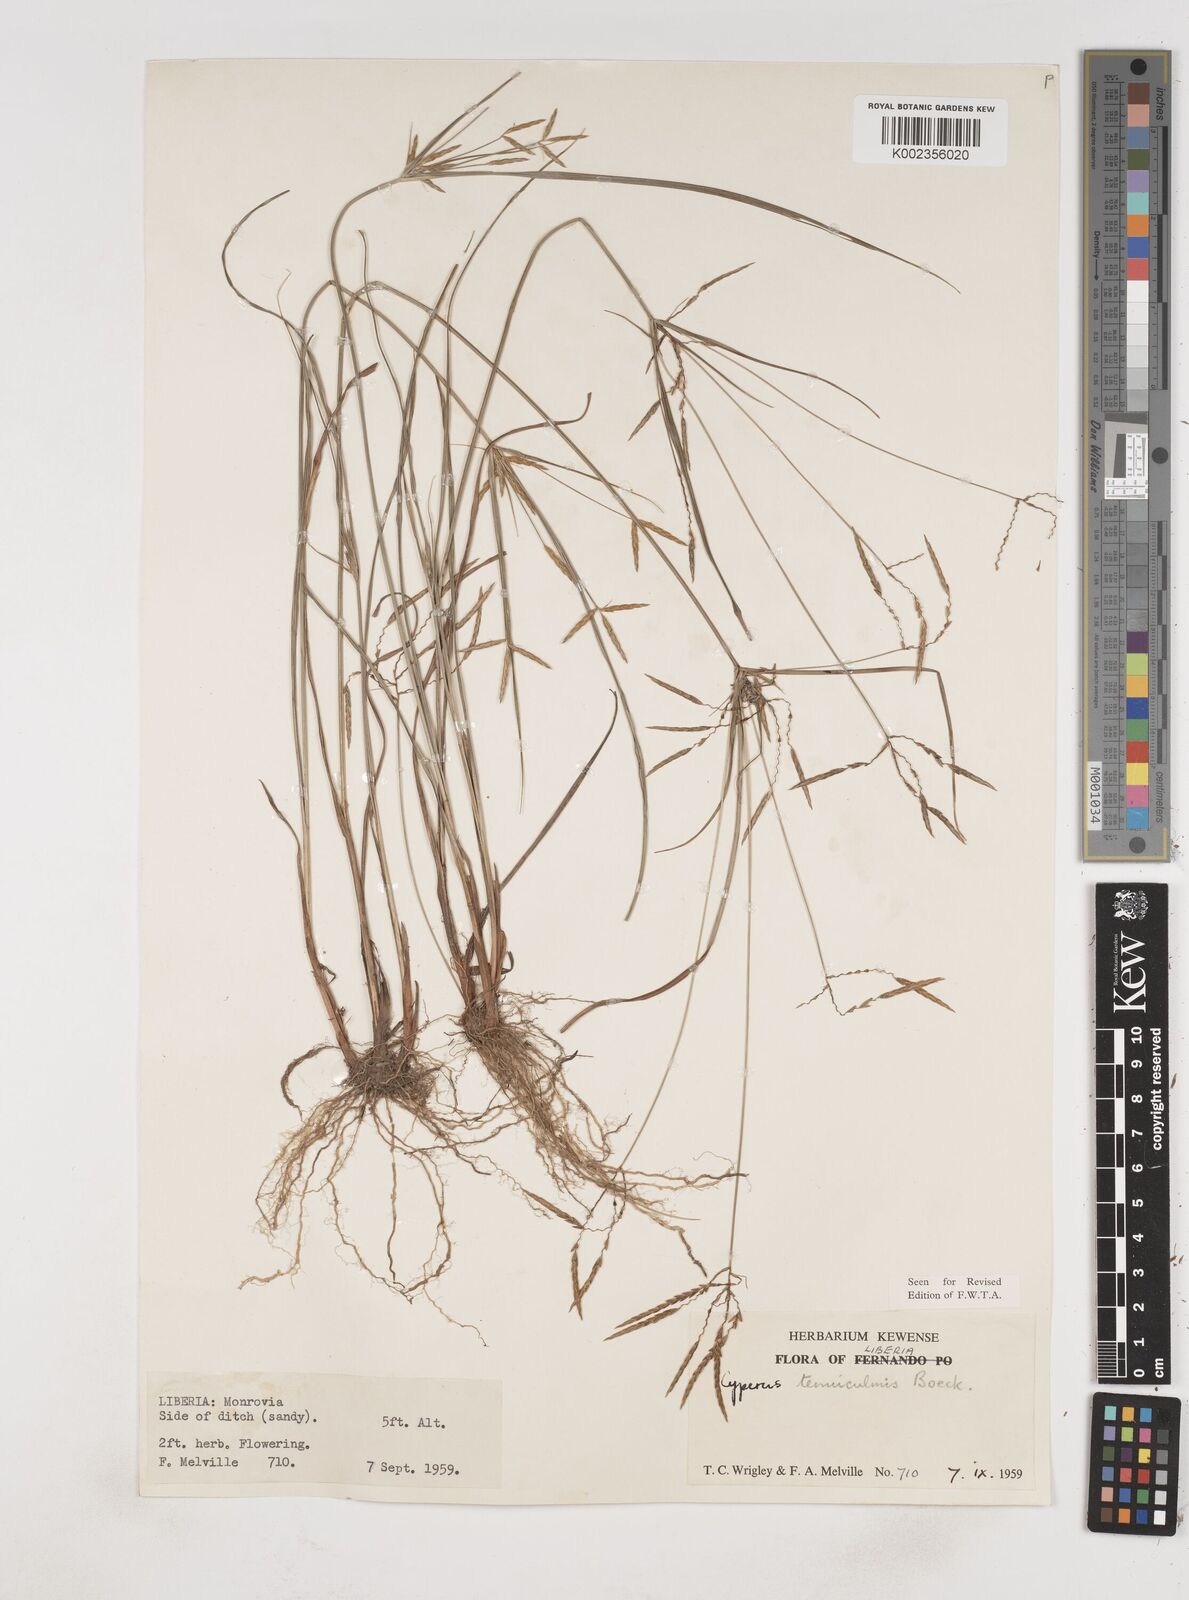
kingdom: Plantae
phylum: Tracheophyta
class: Liliopsida
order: Poales
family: Cyperaceae
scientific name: Cyperaceae
